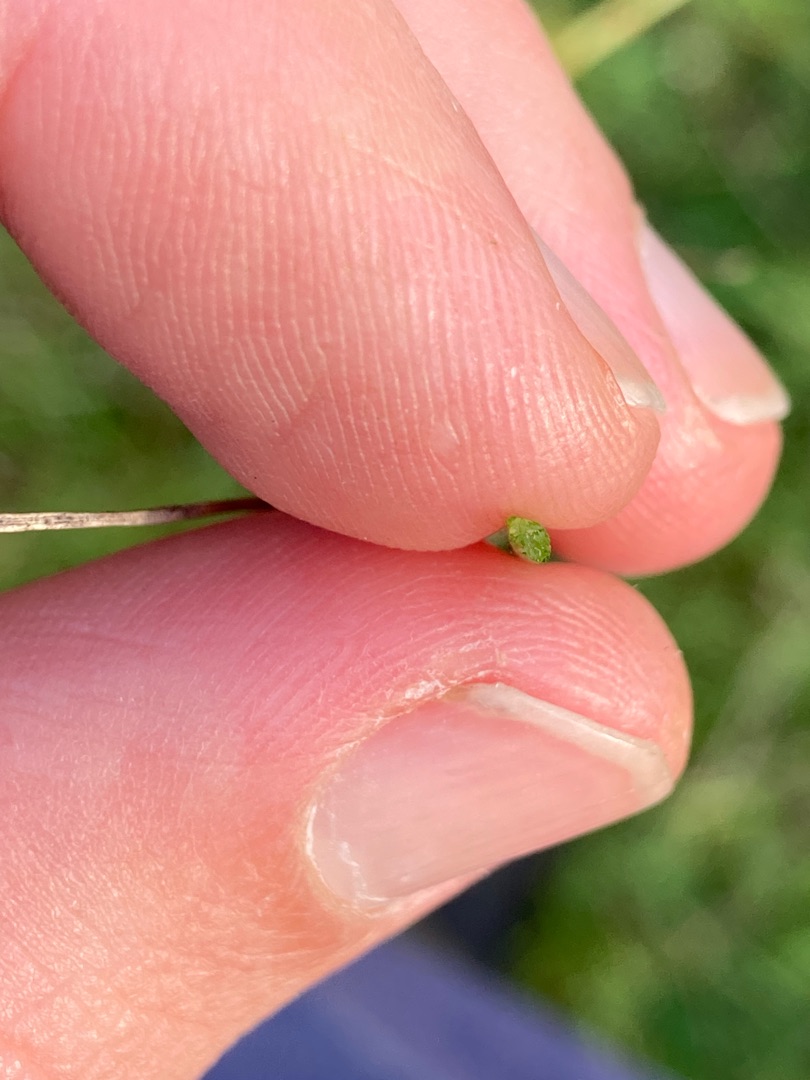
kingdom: Plantae
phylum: Tracheophyta
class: Liliopsida
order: Poales
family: Poaceae
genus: Poa
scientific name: Poa compressa
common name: Fladstrået rapgræs
